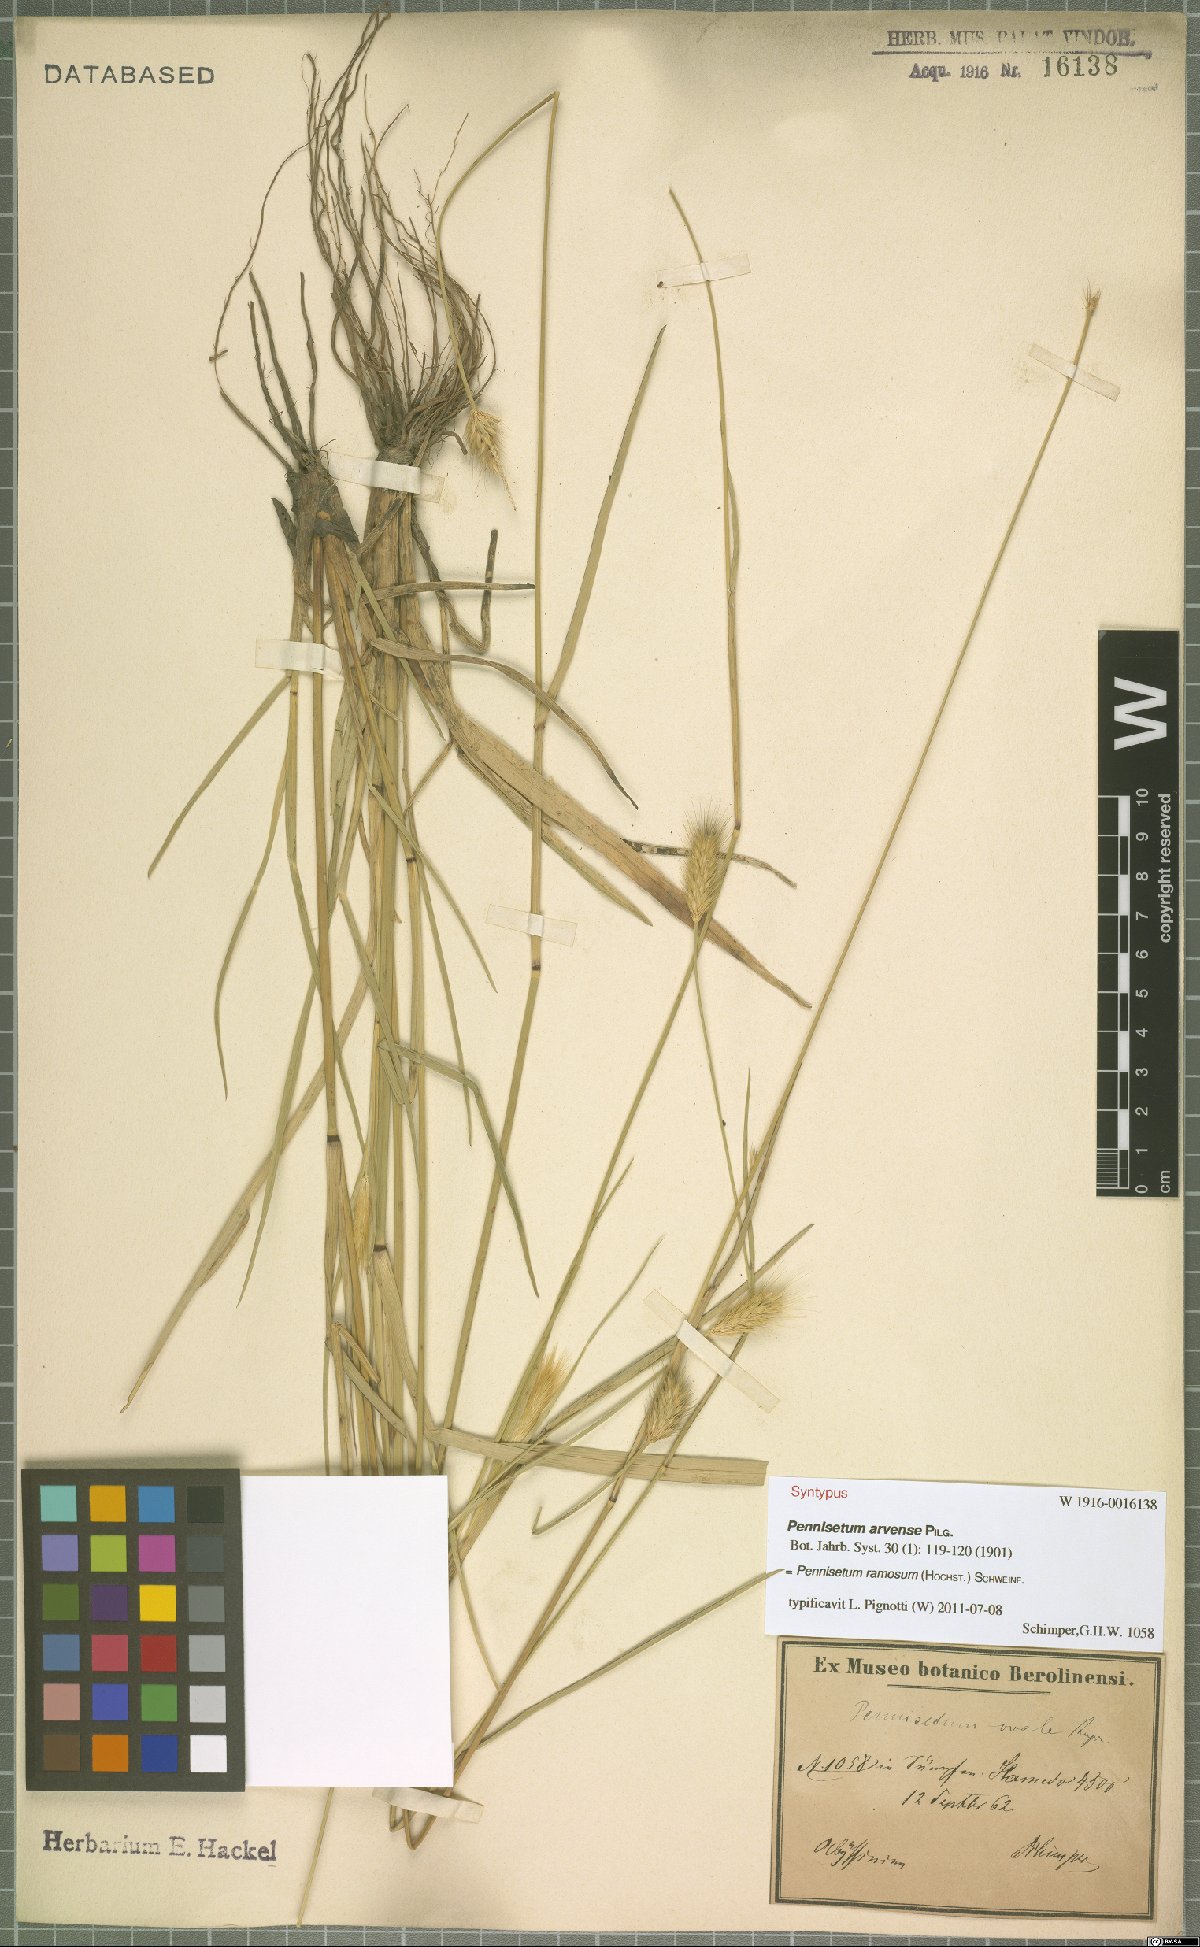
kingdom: Plantae
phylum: Tracheophyta
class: Liliopsida
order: Poales
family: Poaceae
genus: Cenchrus
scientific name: Cenchrus ramosus
